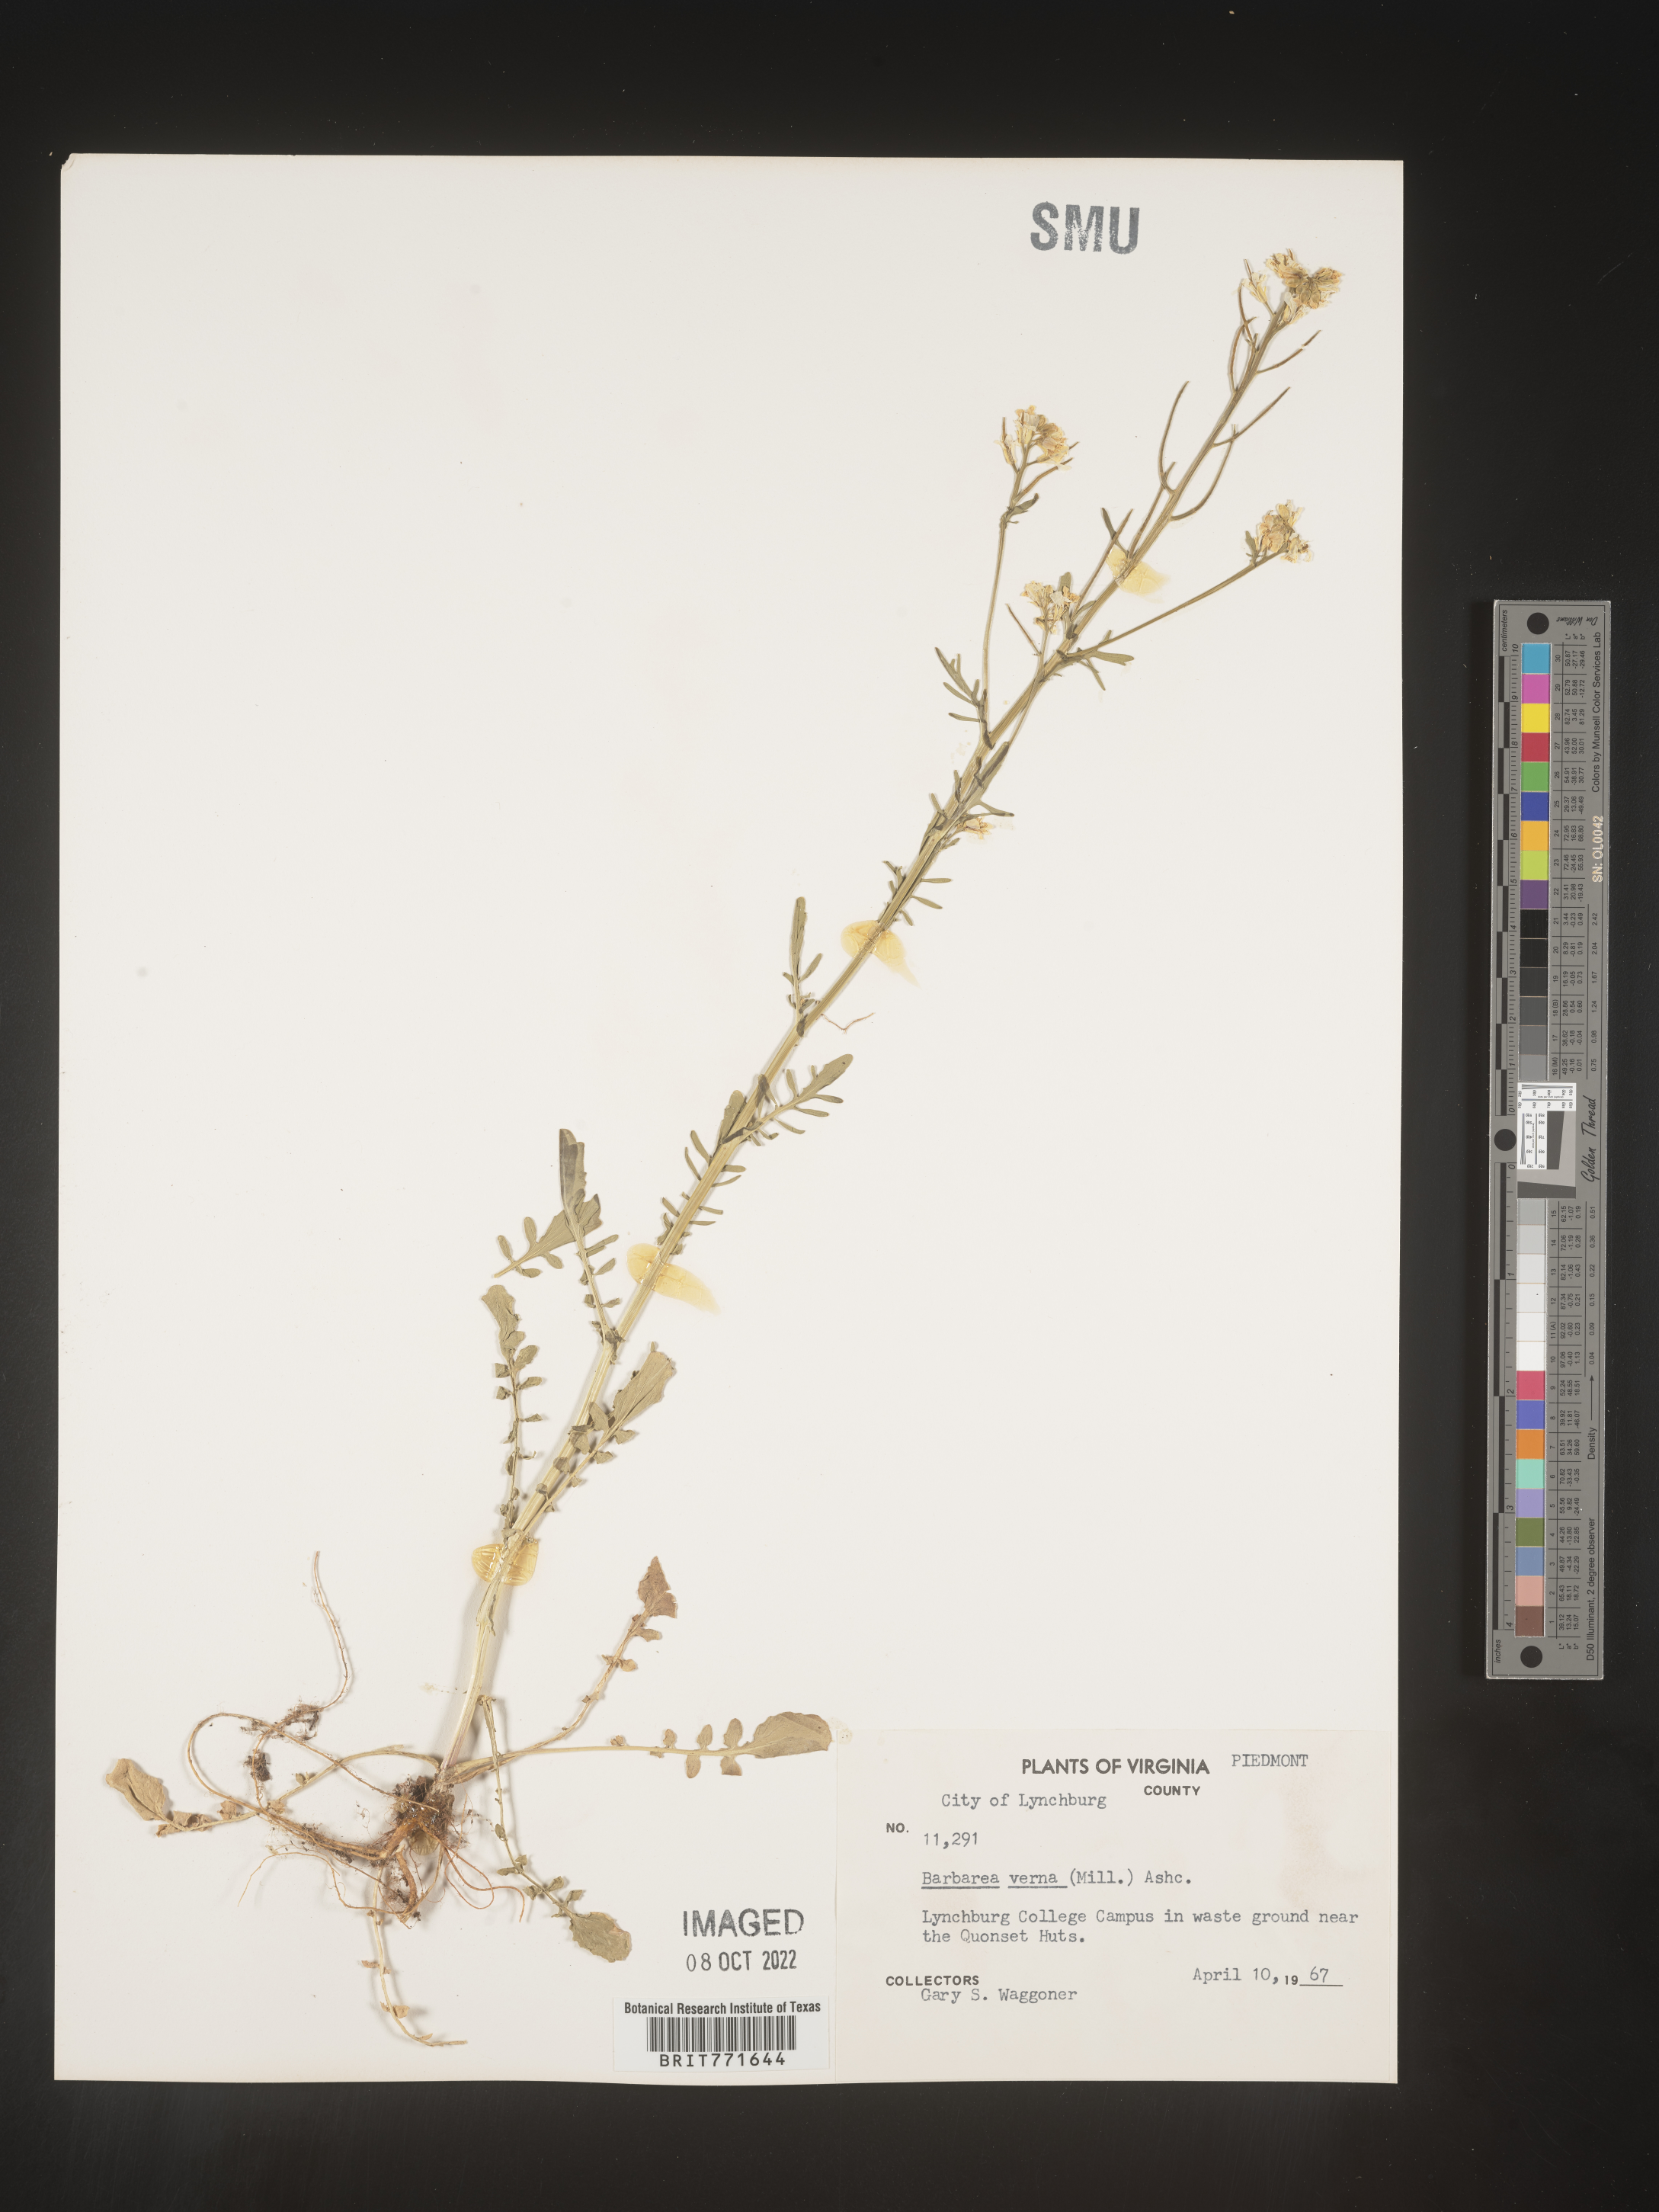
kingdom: Plantae
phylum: Tracheophyta
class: Magnoliopsida
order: Brassicales
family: Brassicaceae
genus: Barbarea
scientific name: Barbarea verna
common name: American cress
